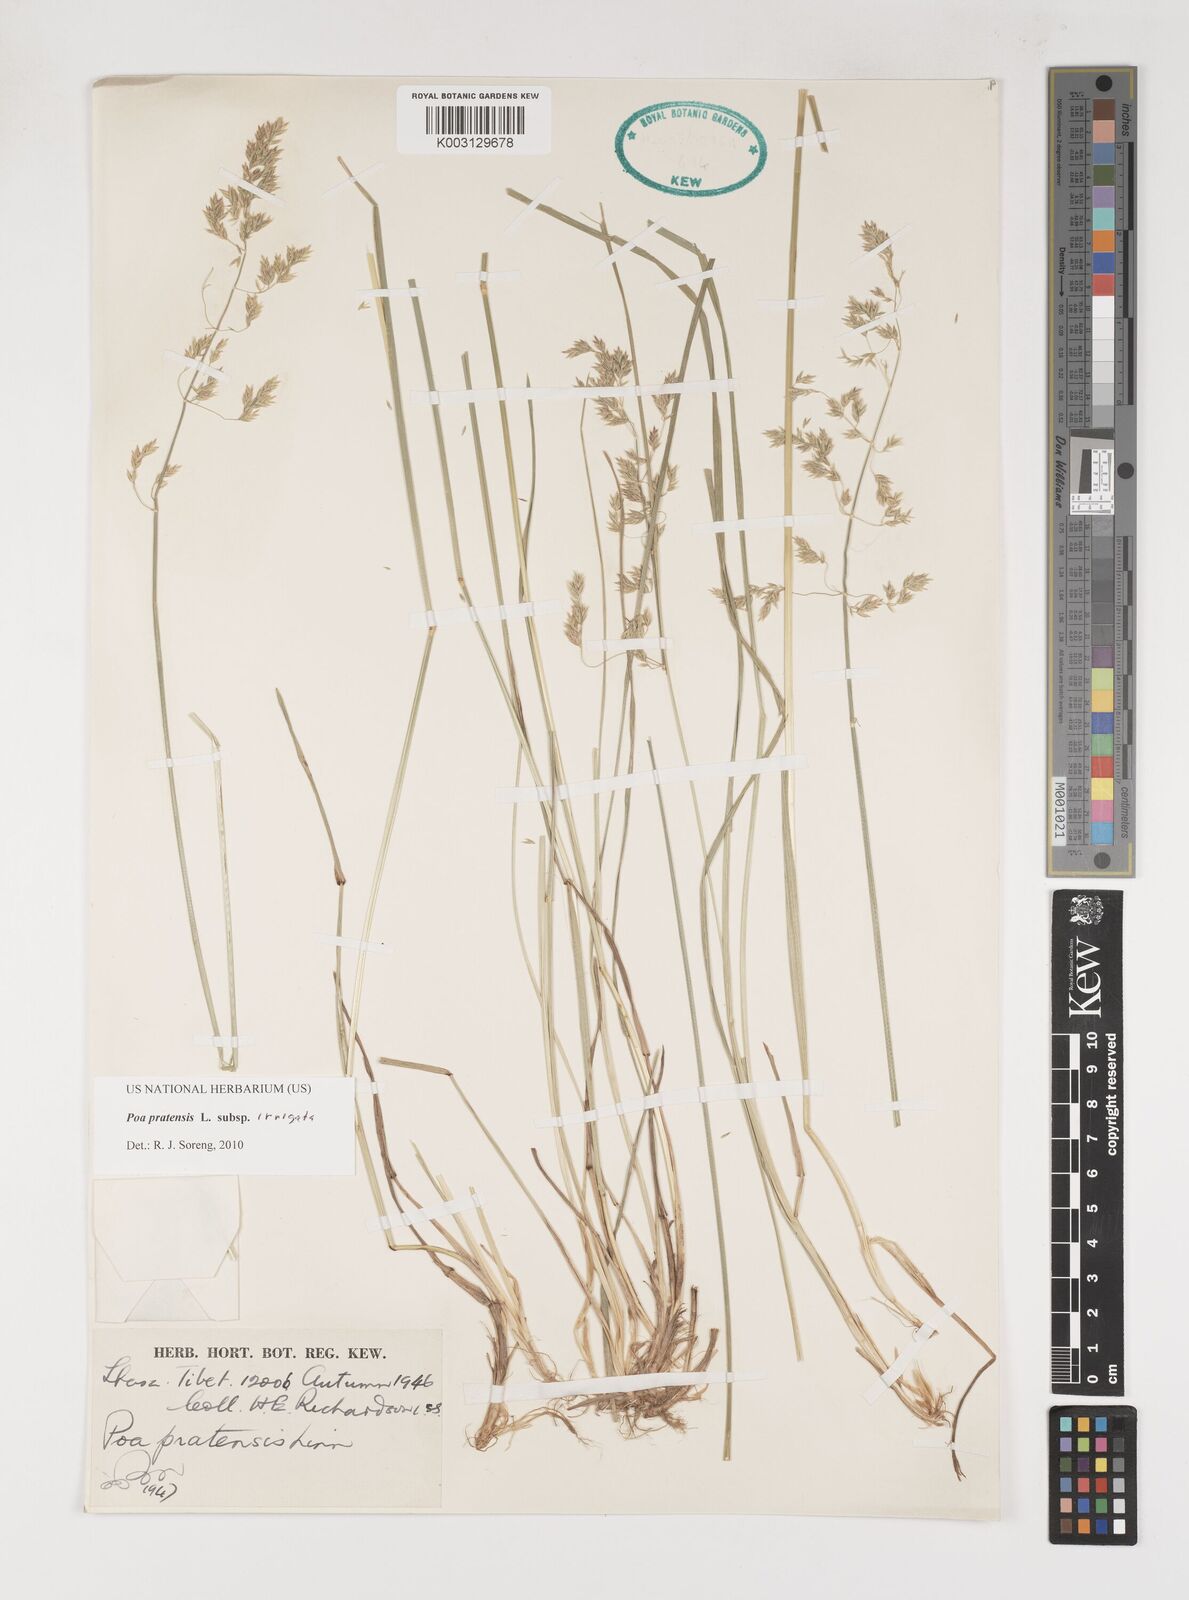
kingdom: Plantae
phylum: Tracheophyta
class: Liliopsida
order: Poales
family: Poaceae
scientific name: Poaceae
